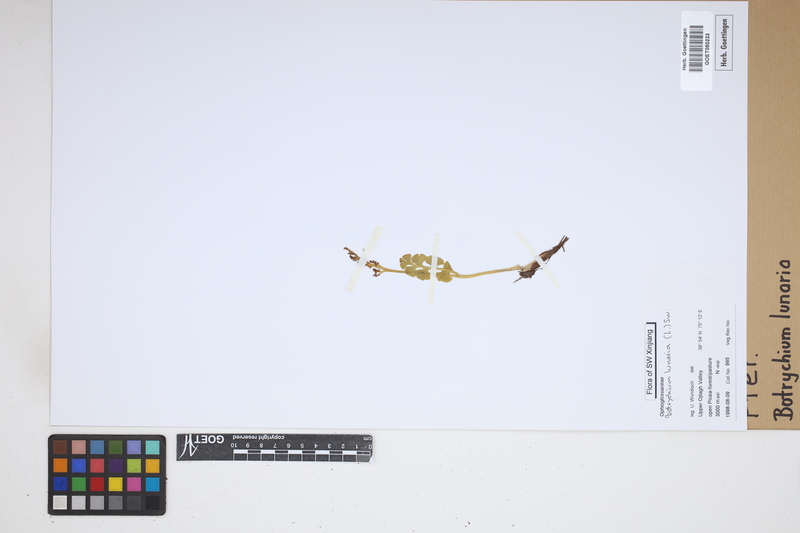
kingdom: Plantae
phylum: Tracheophyta
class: Polypodiopsida
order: Ophioglossales
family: Ophioglossaceae
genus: Botrychium
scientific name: Botrychium lunaria
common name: Moonwort
